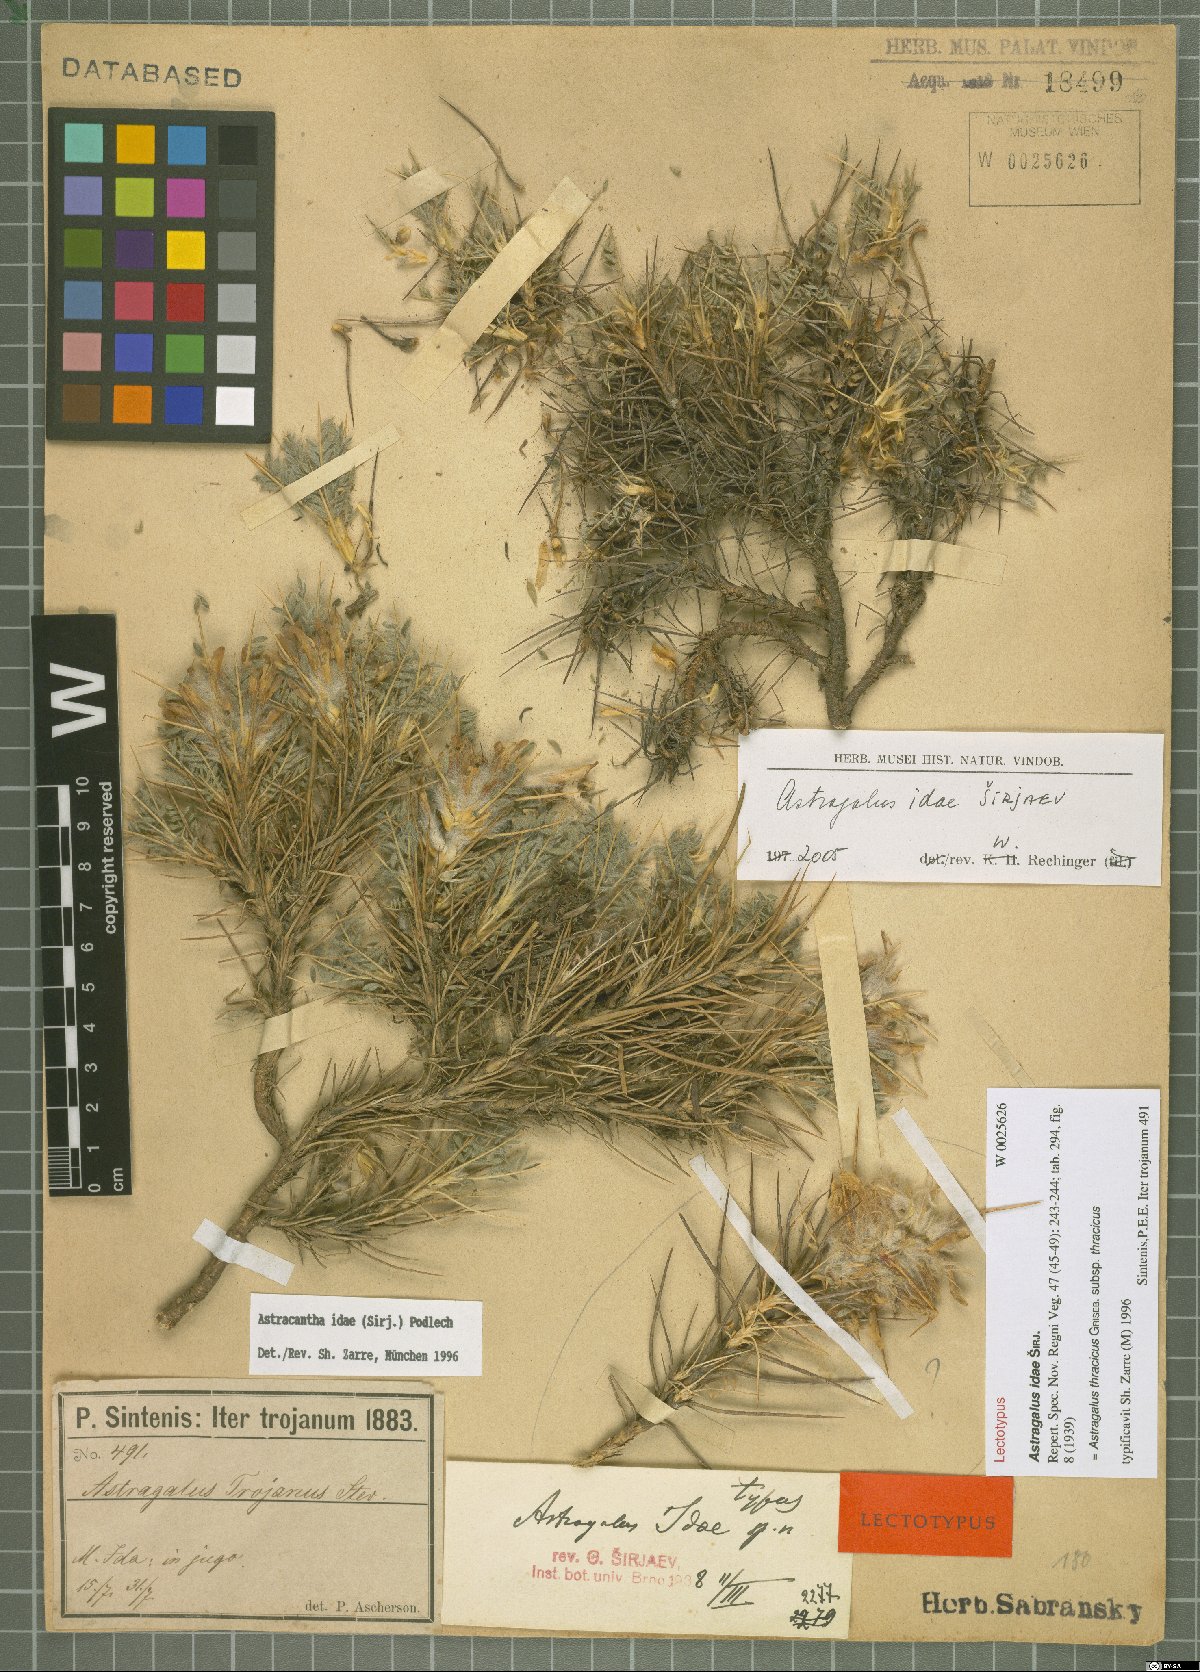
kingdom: Plantae
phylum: Tracheophyta
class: Magnoliopsida
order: Fabales
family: Fabaceae
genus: Astragalus
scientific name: Astragalus thracicus
